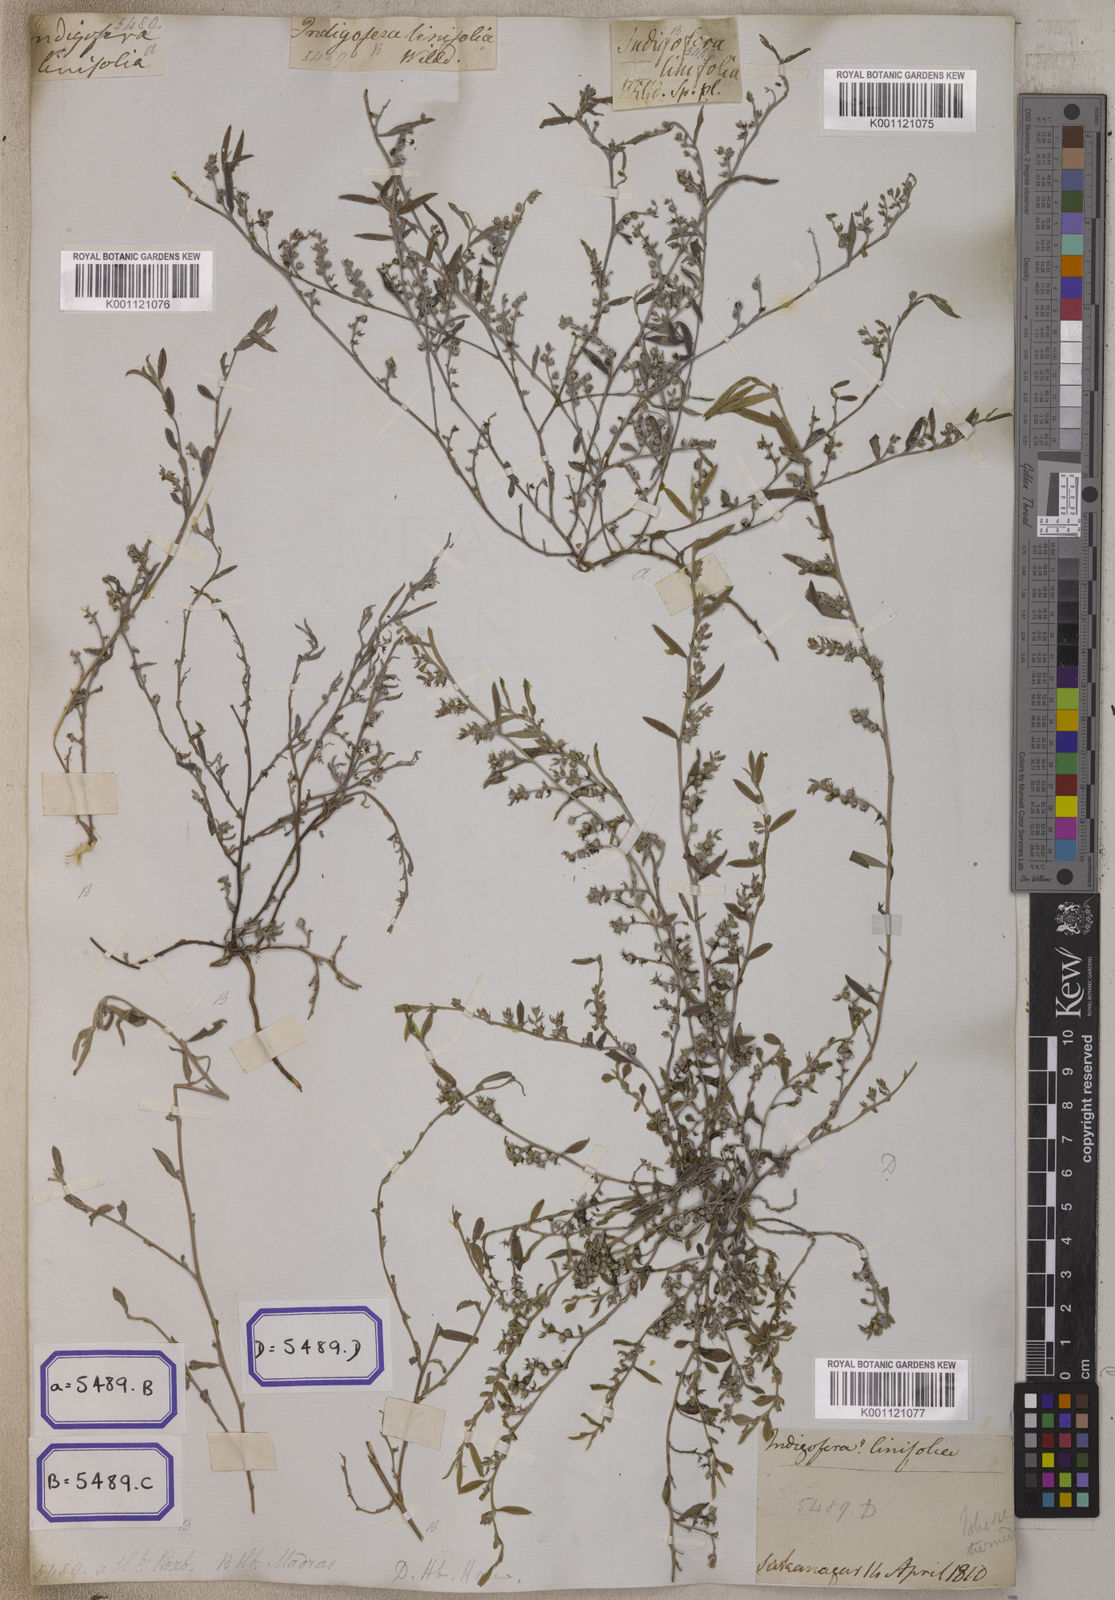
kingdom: Plantae
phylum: Tracheophyta
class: Magnoliopsida
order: Fabales
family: Fabaceae
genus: Indigofera
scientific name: Indigofera linifolia
